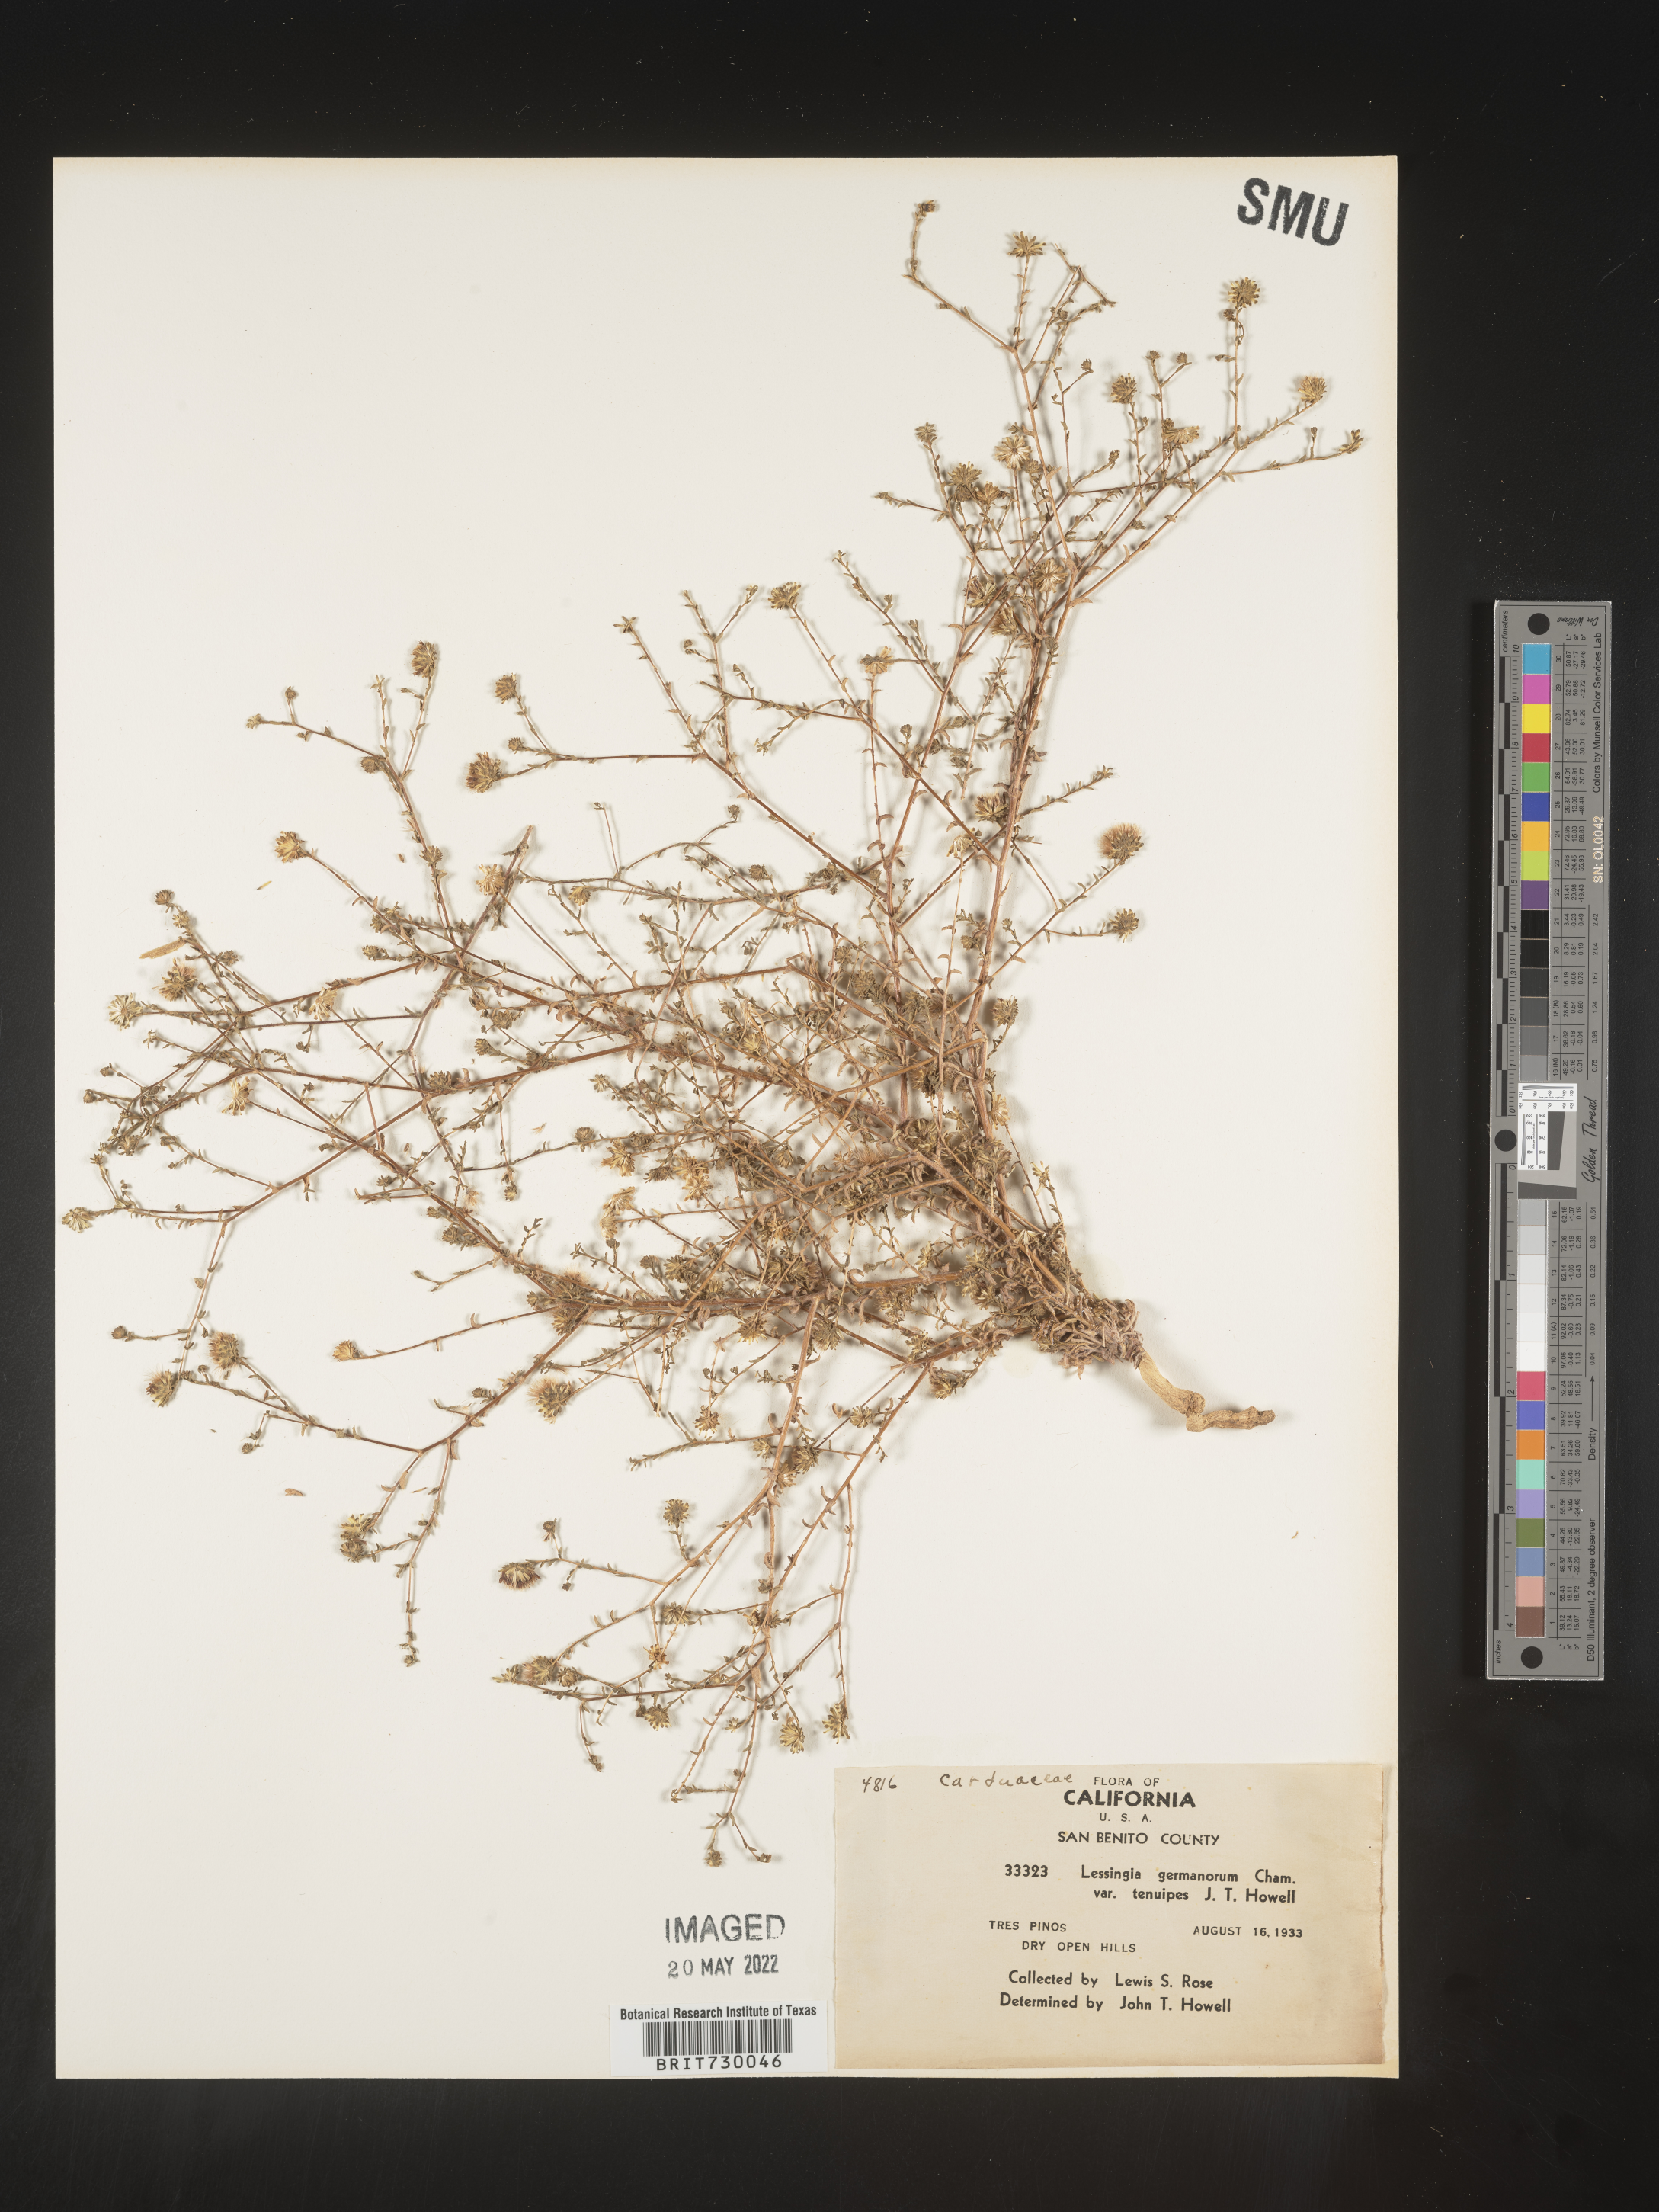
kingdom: Plantae
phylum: Tracheophyta
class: Magnoliopsida
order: Asterales
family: Asteraceae
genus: Lessingia
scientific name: Lessingia
